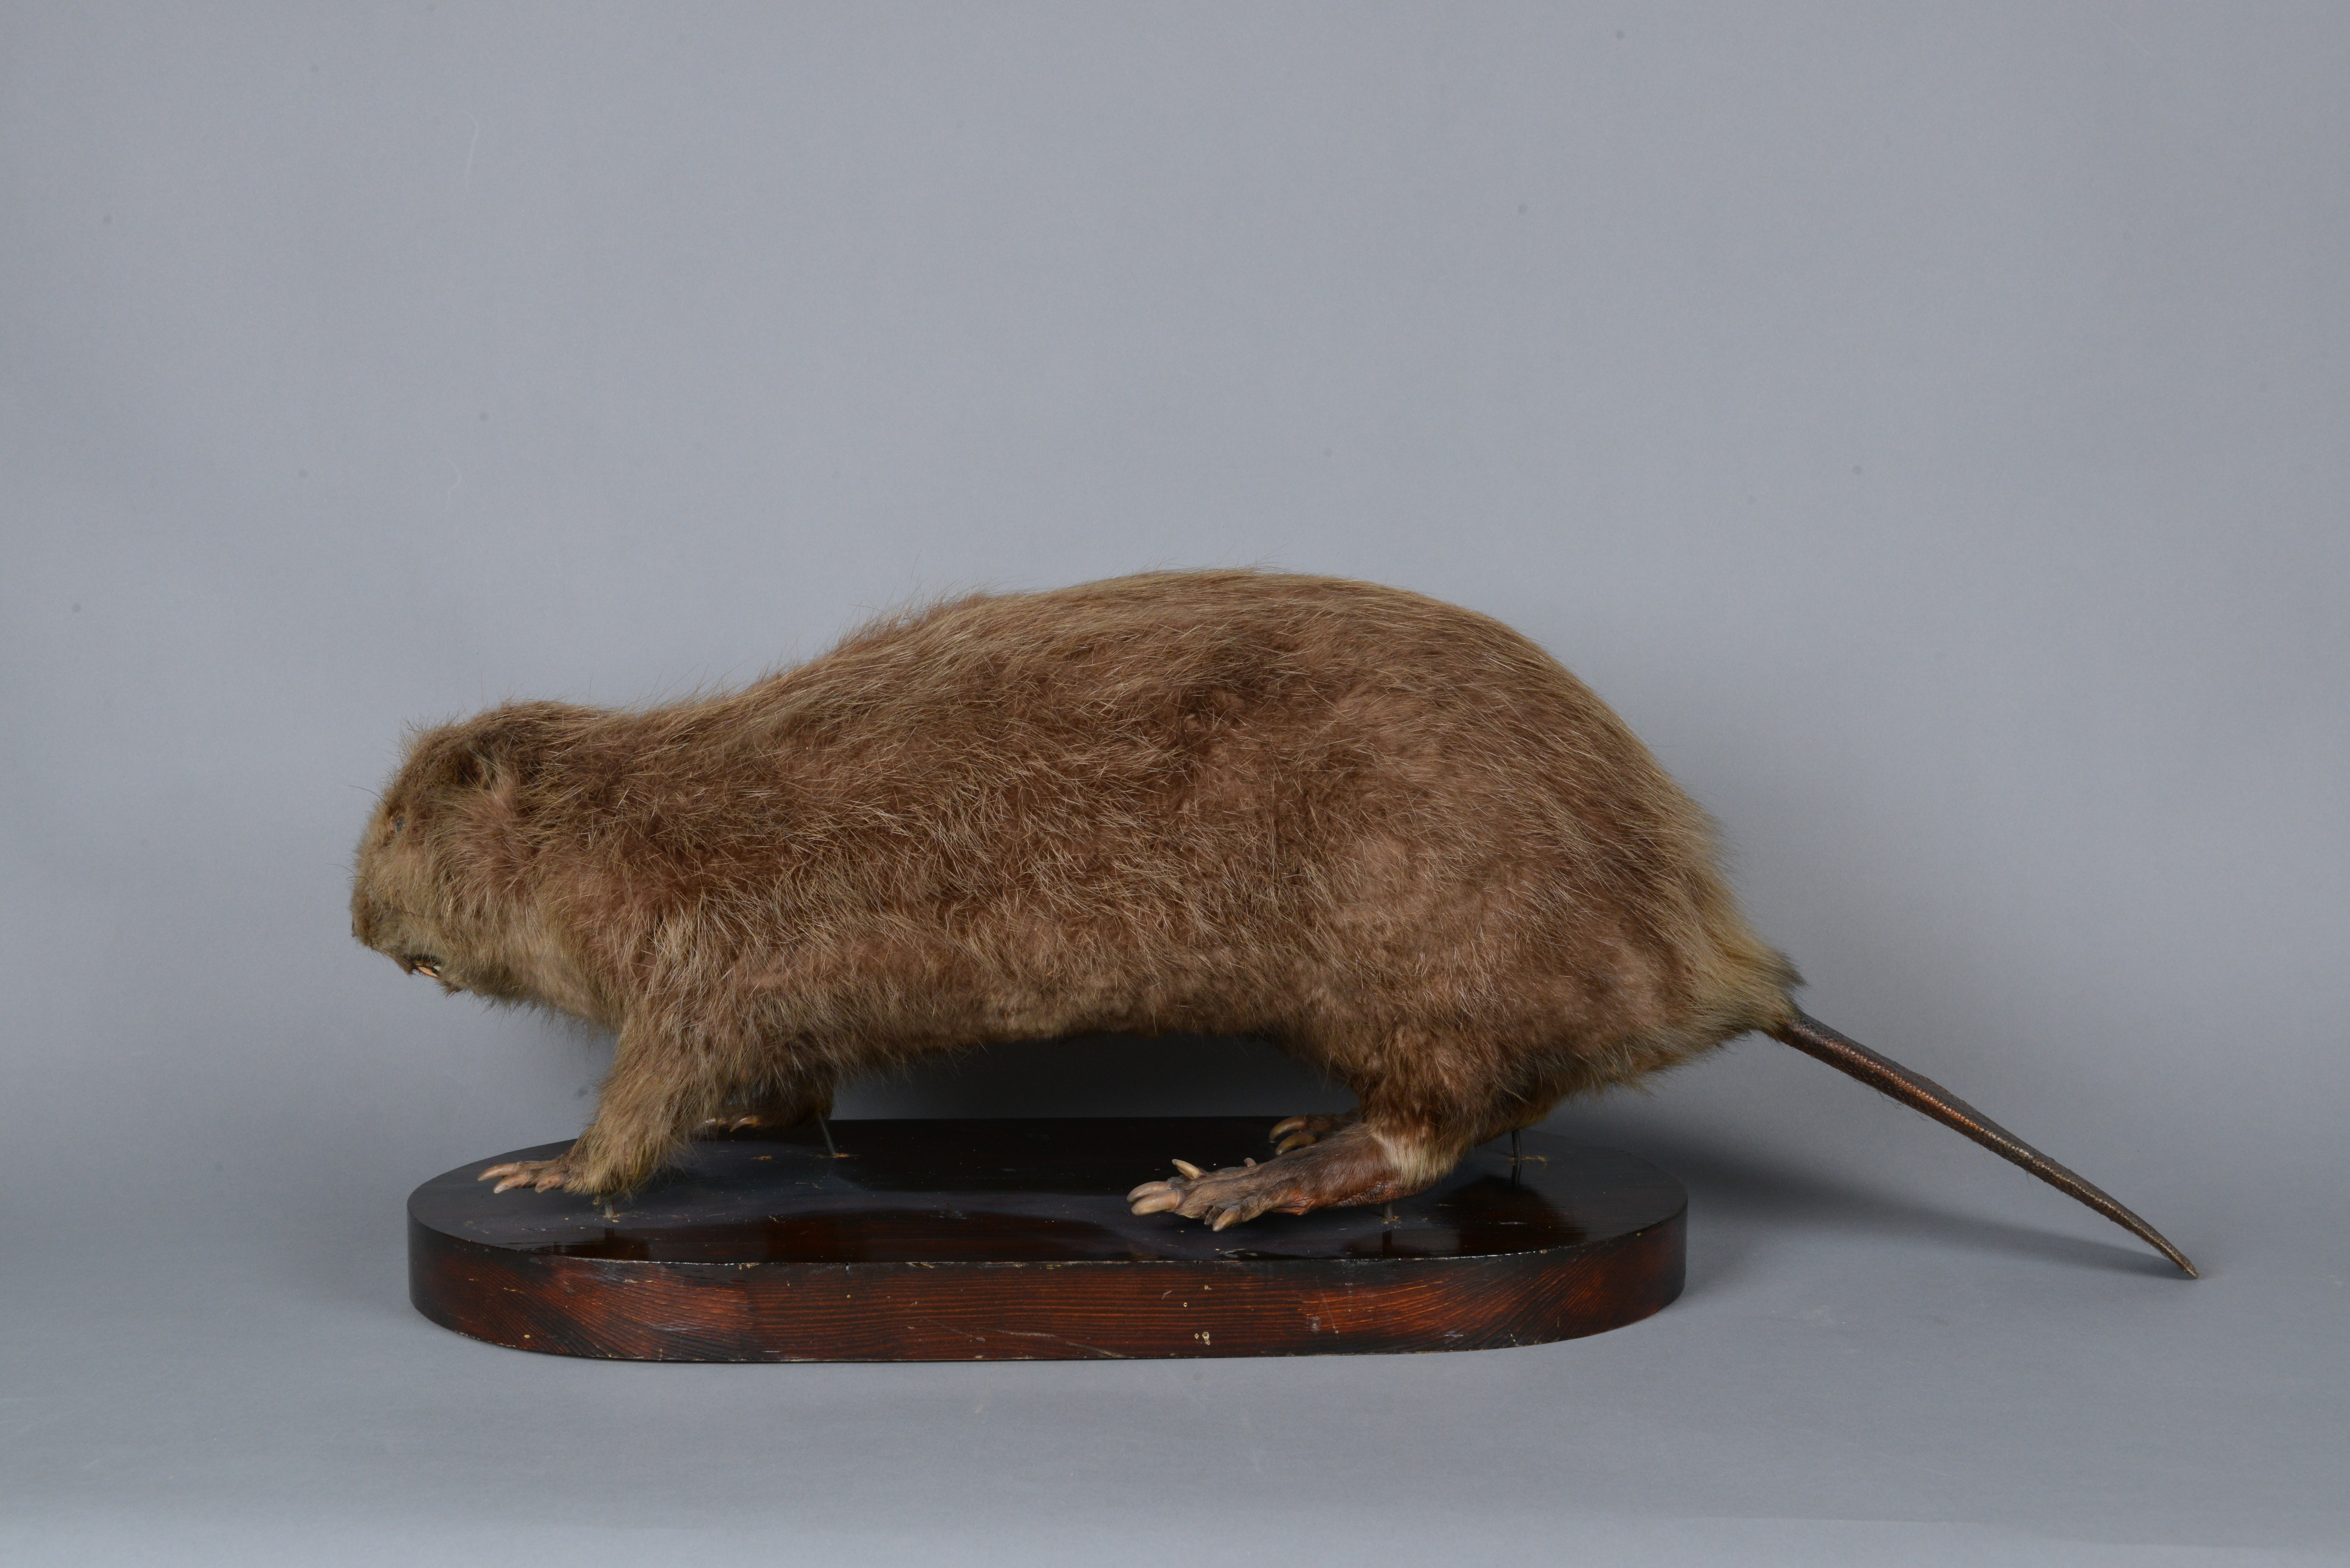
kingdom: Animalia
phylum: Chordata
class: Mammalia
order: Rodentia
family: Castoridae
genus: Castor
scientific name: Castor fiber
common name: Eurasian beaver
